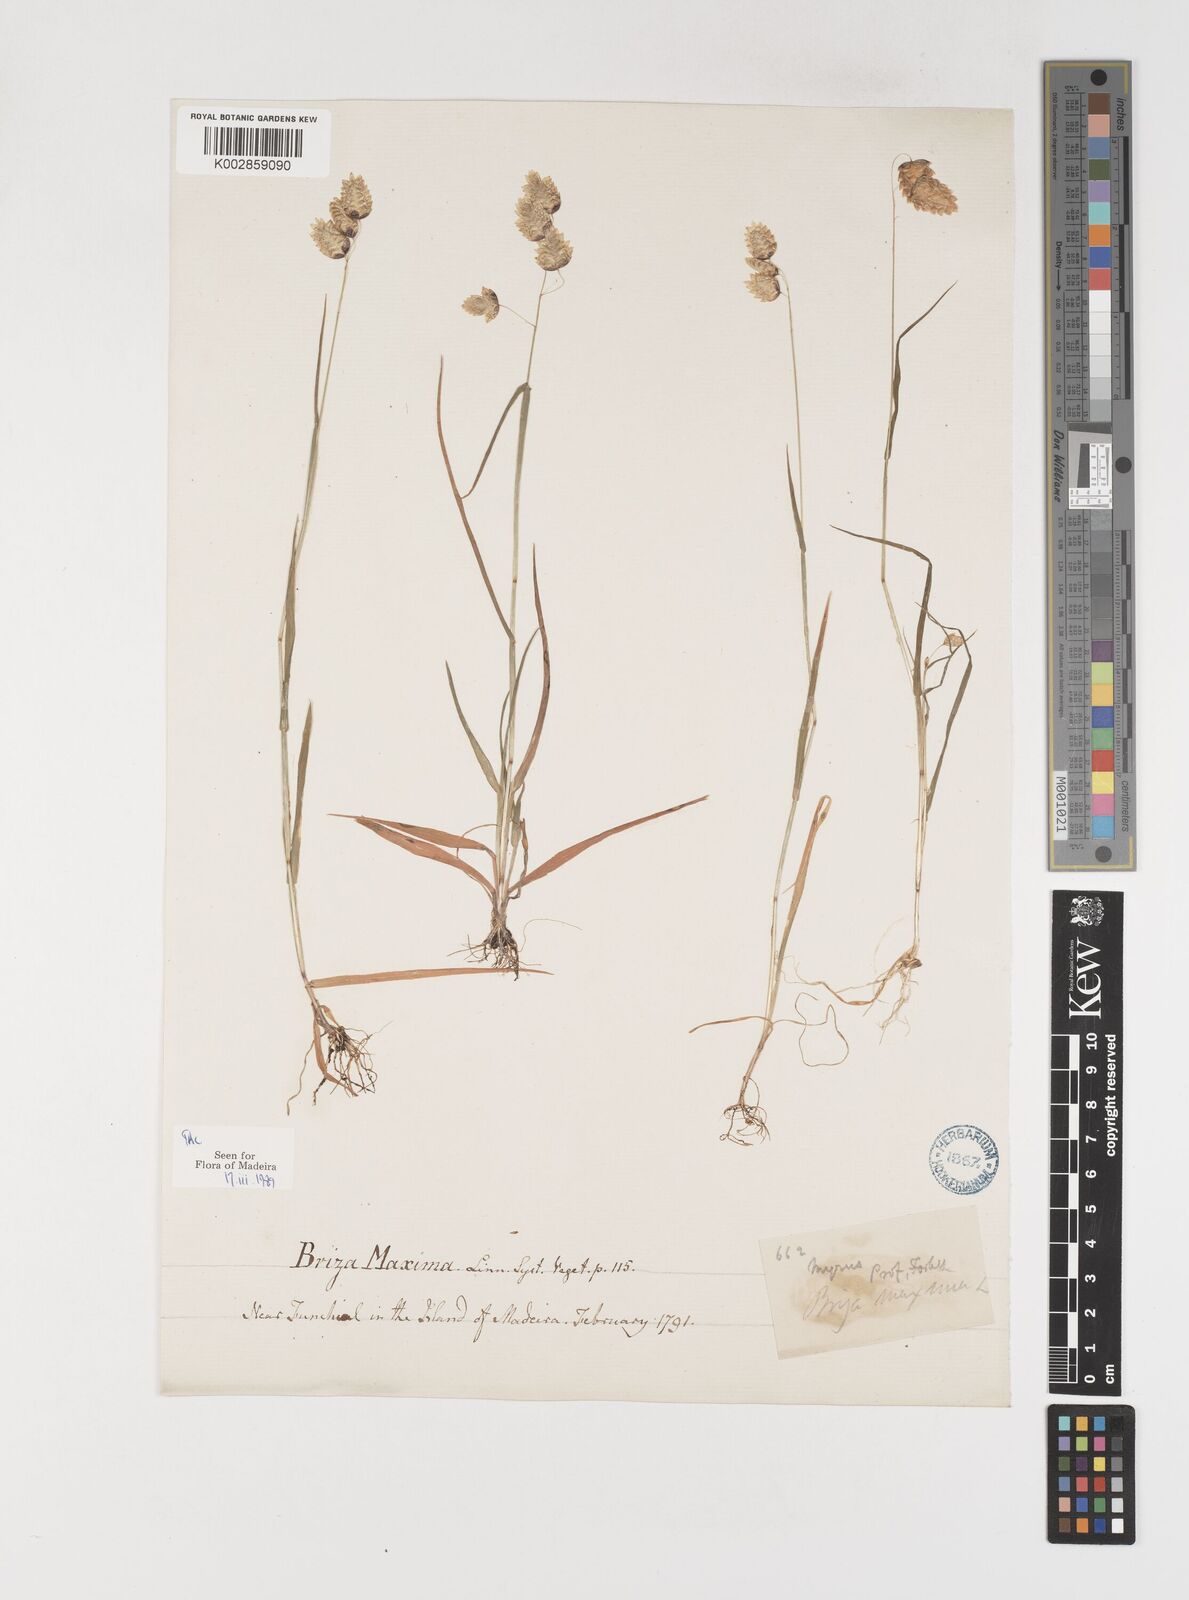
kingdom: Plantae
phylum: Tracheophyta
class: Liliopsida
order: Poales
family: Poaceae
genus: Briza
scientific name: Briza maxima
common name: Big quakinggrass
